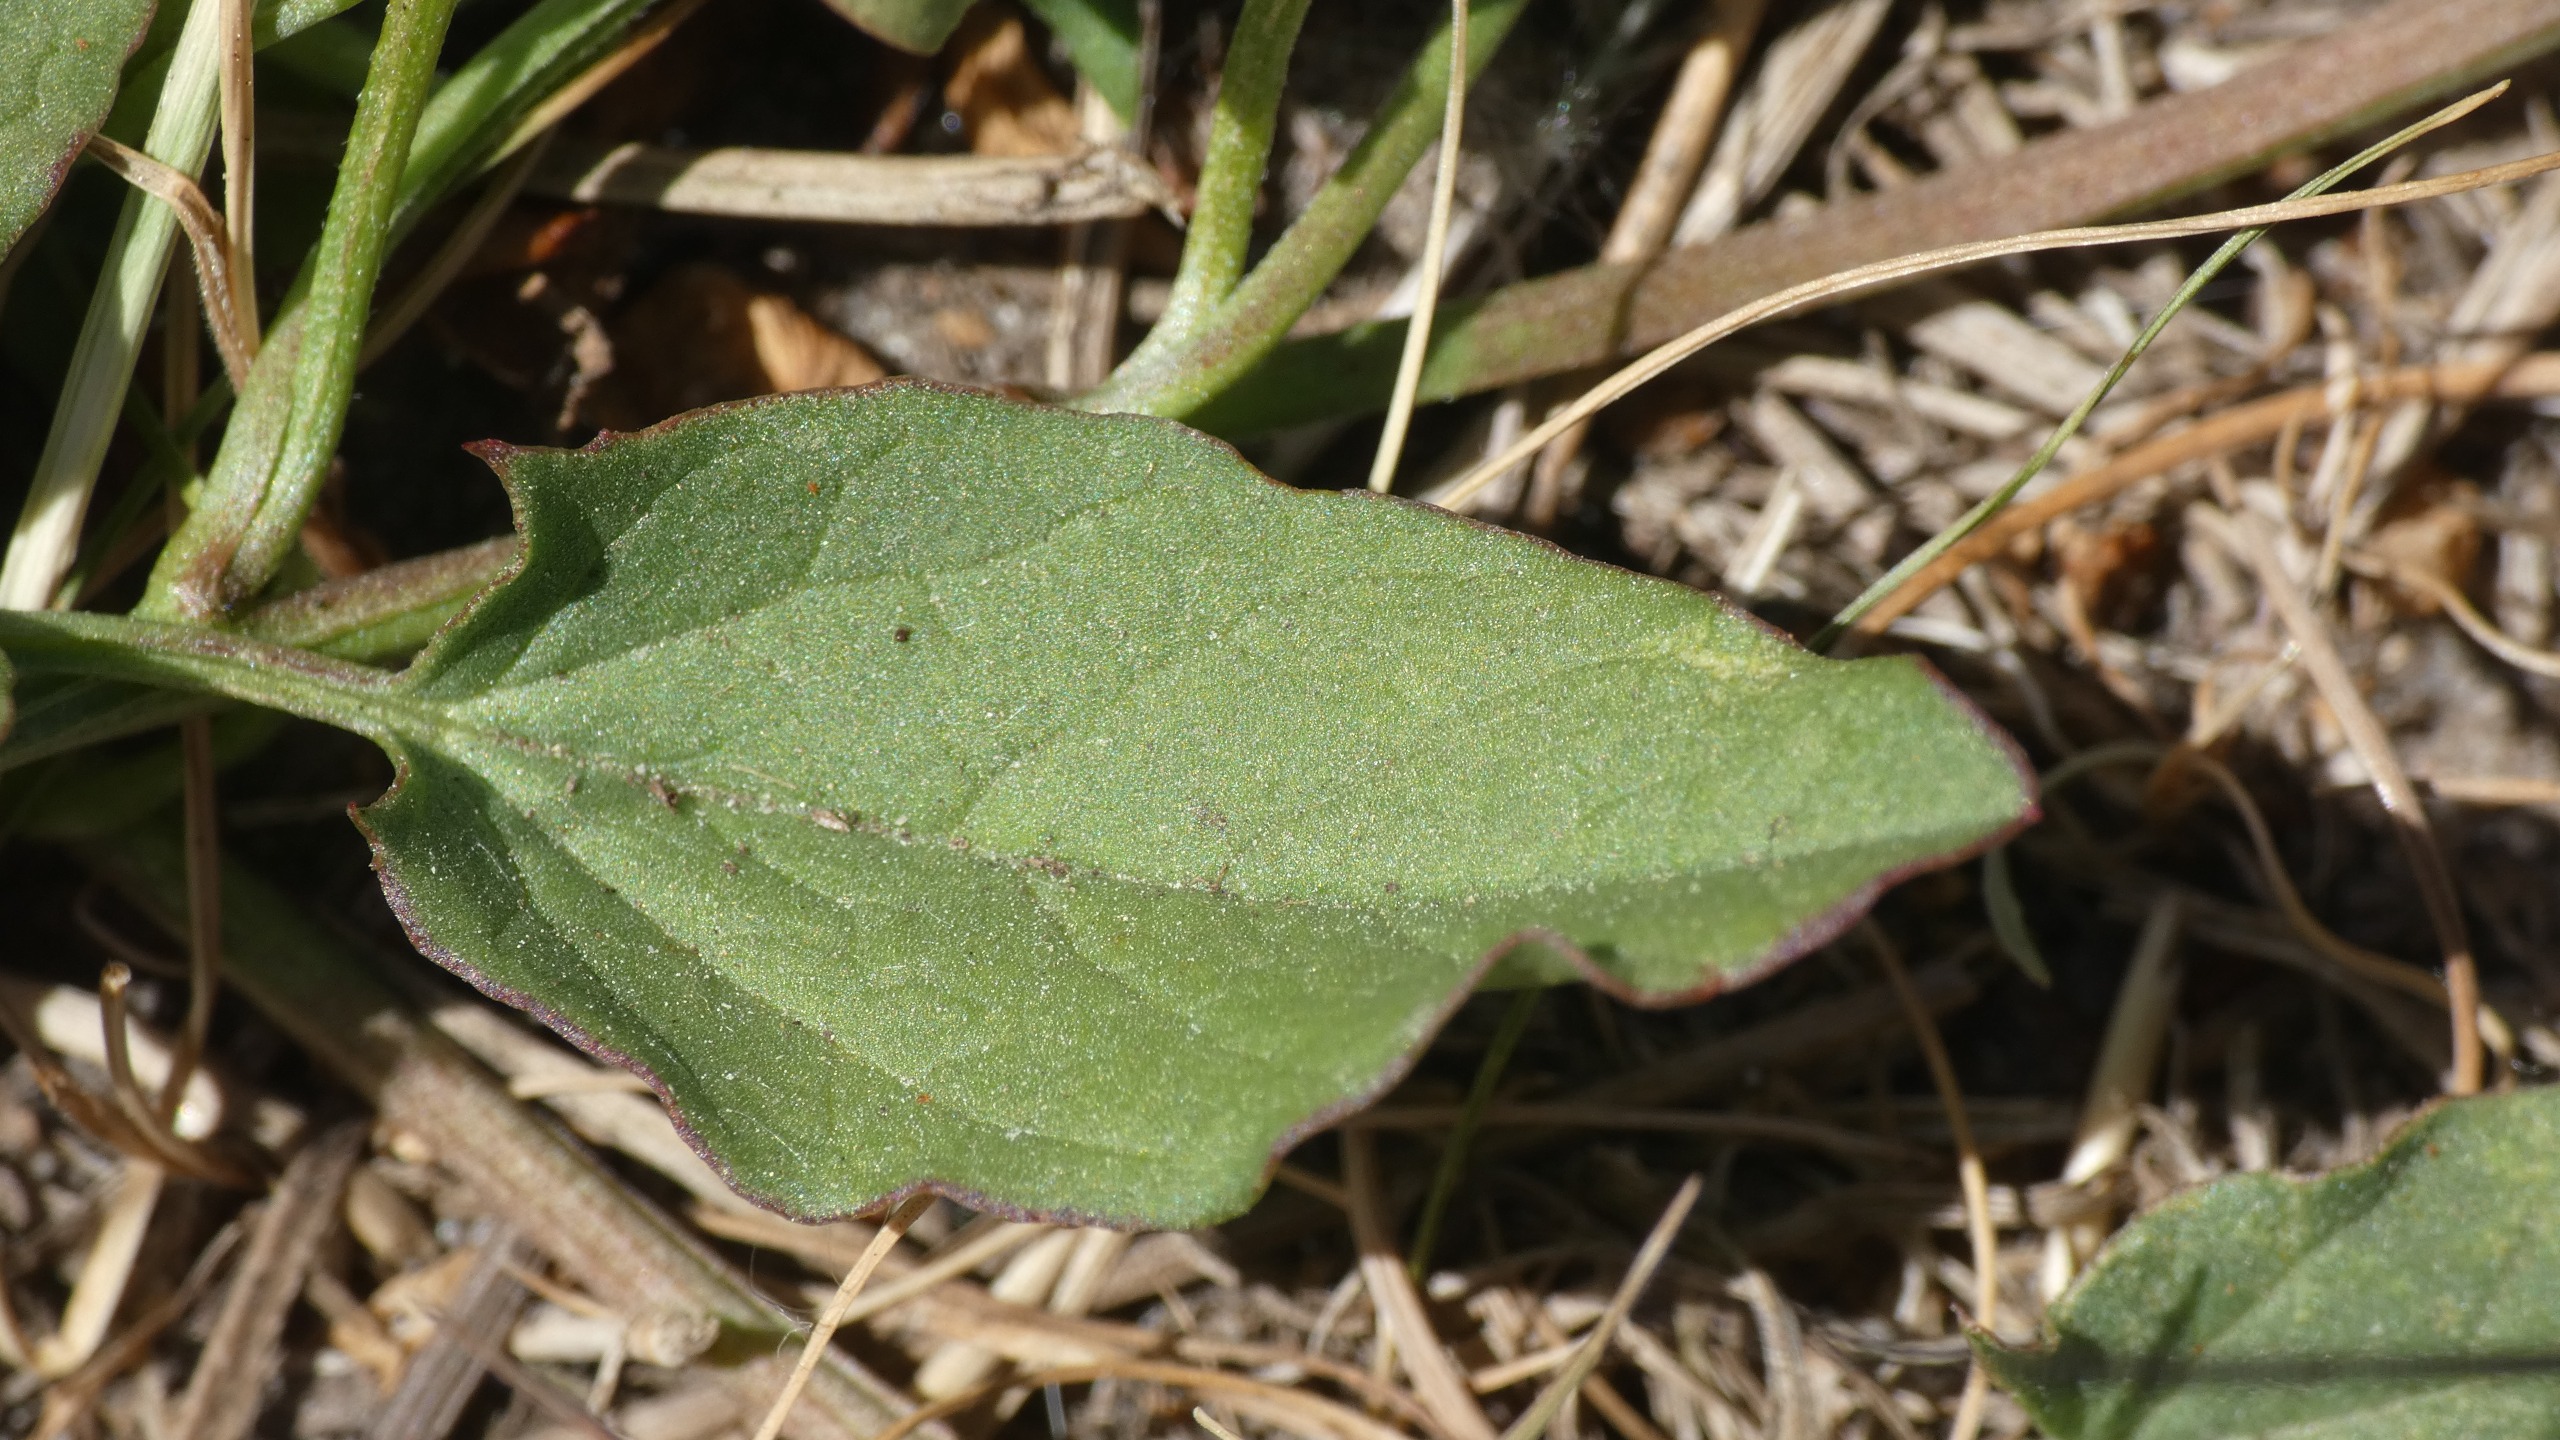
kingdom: Plantae
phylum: Tracheophyta
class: Magnoliopsida
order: Solanales
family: Convolvulaceae
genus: Convolvulus
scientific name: Convolvulus arvensis
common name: Ager-snerle
